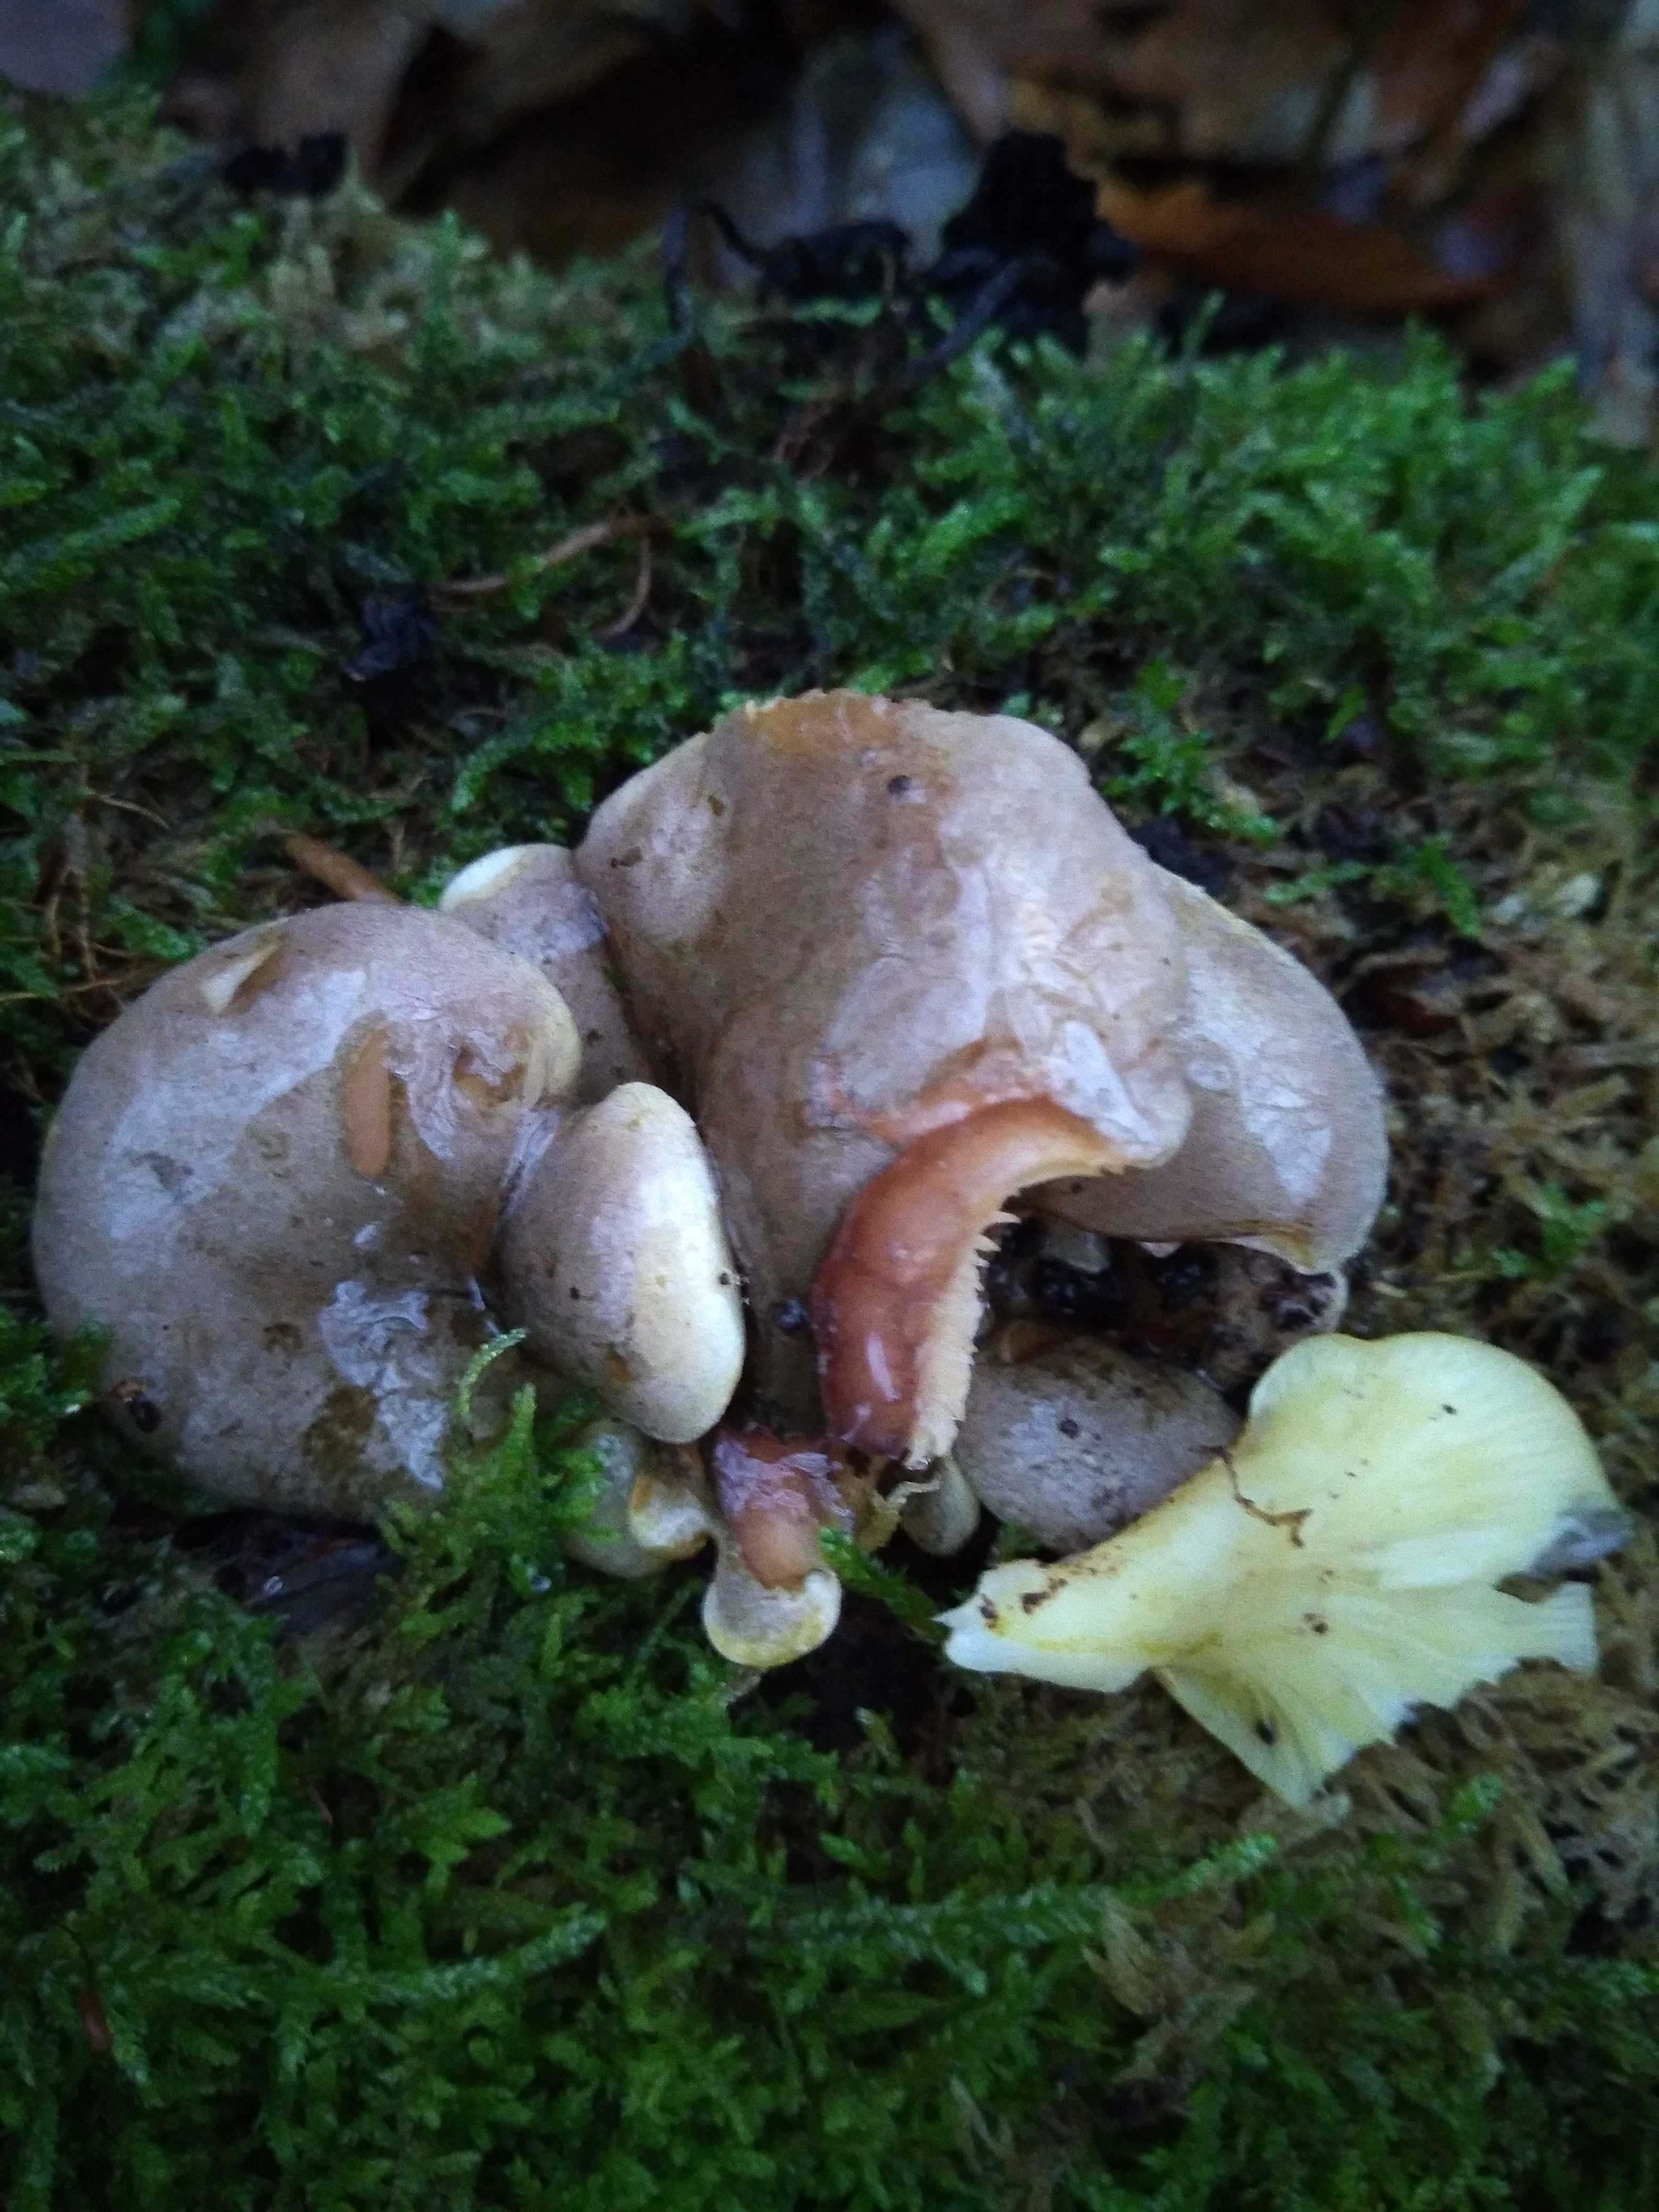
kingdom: Fungi
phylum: Basidiomycota
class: Agaricomycetes
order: Agaricales
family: Sarcomyxaceae
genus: Sarcomyxa
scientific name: Sarcomyxa serotina
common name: gummihat
